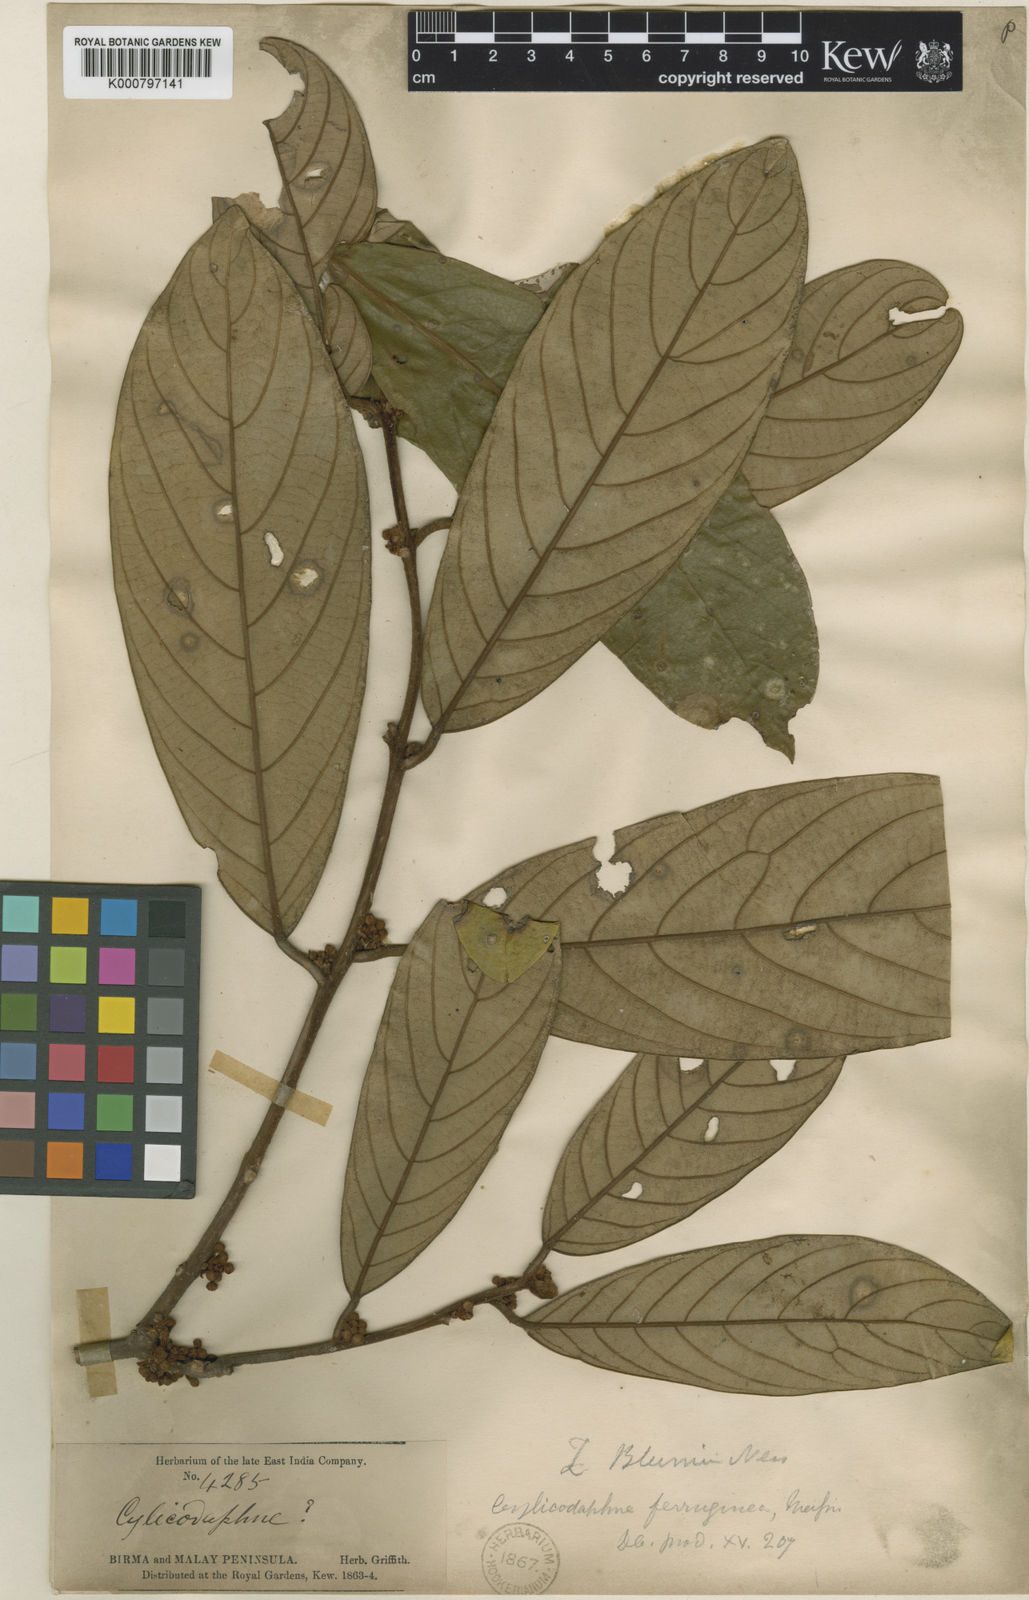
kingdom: Plantae
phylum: Tracheophyta
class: Magnoliopsida
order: Laurales
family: Lauraceae
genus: Litsea
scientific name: Litsea ferruginea
